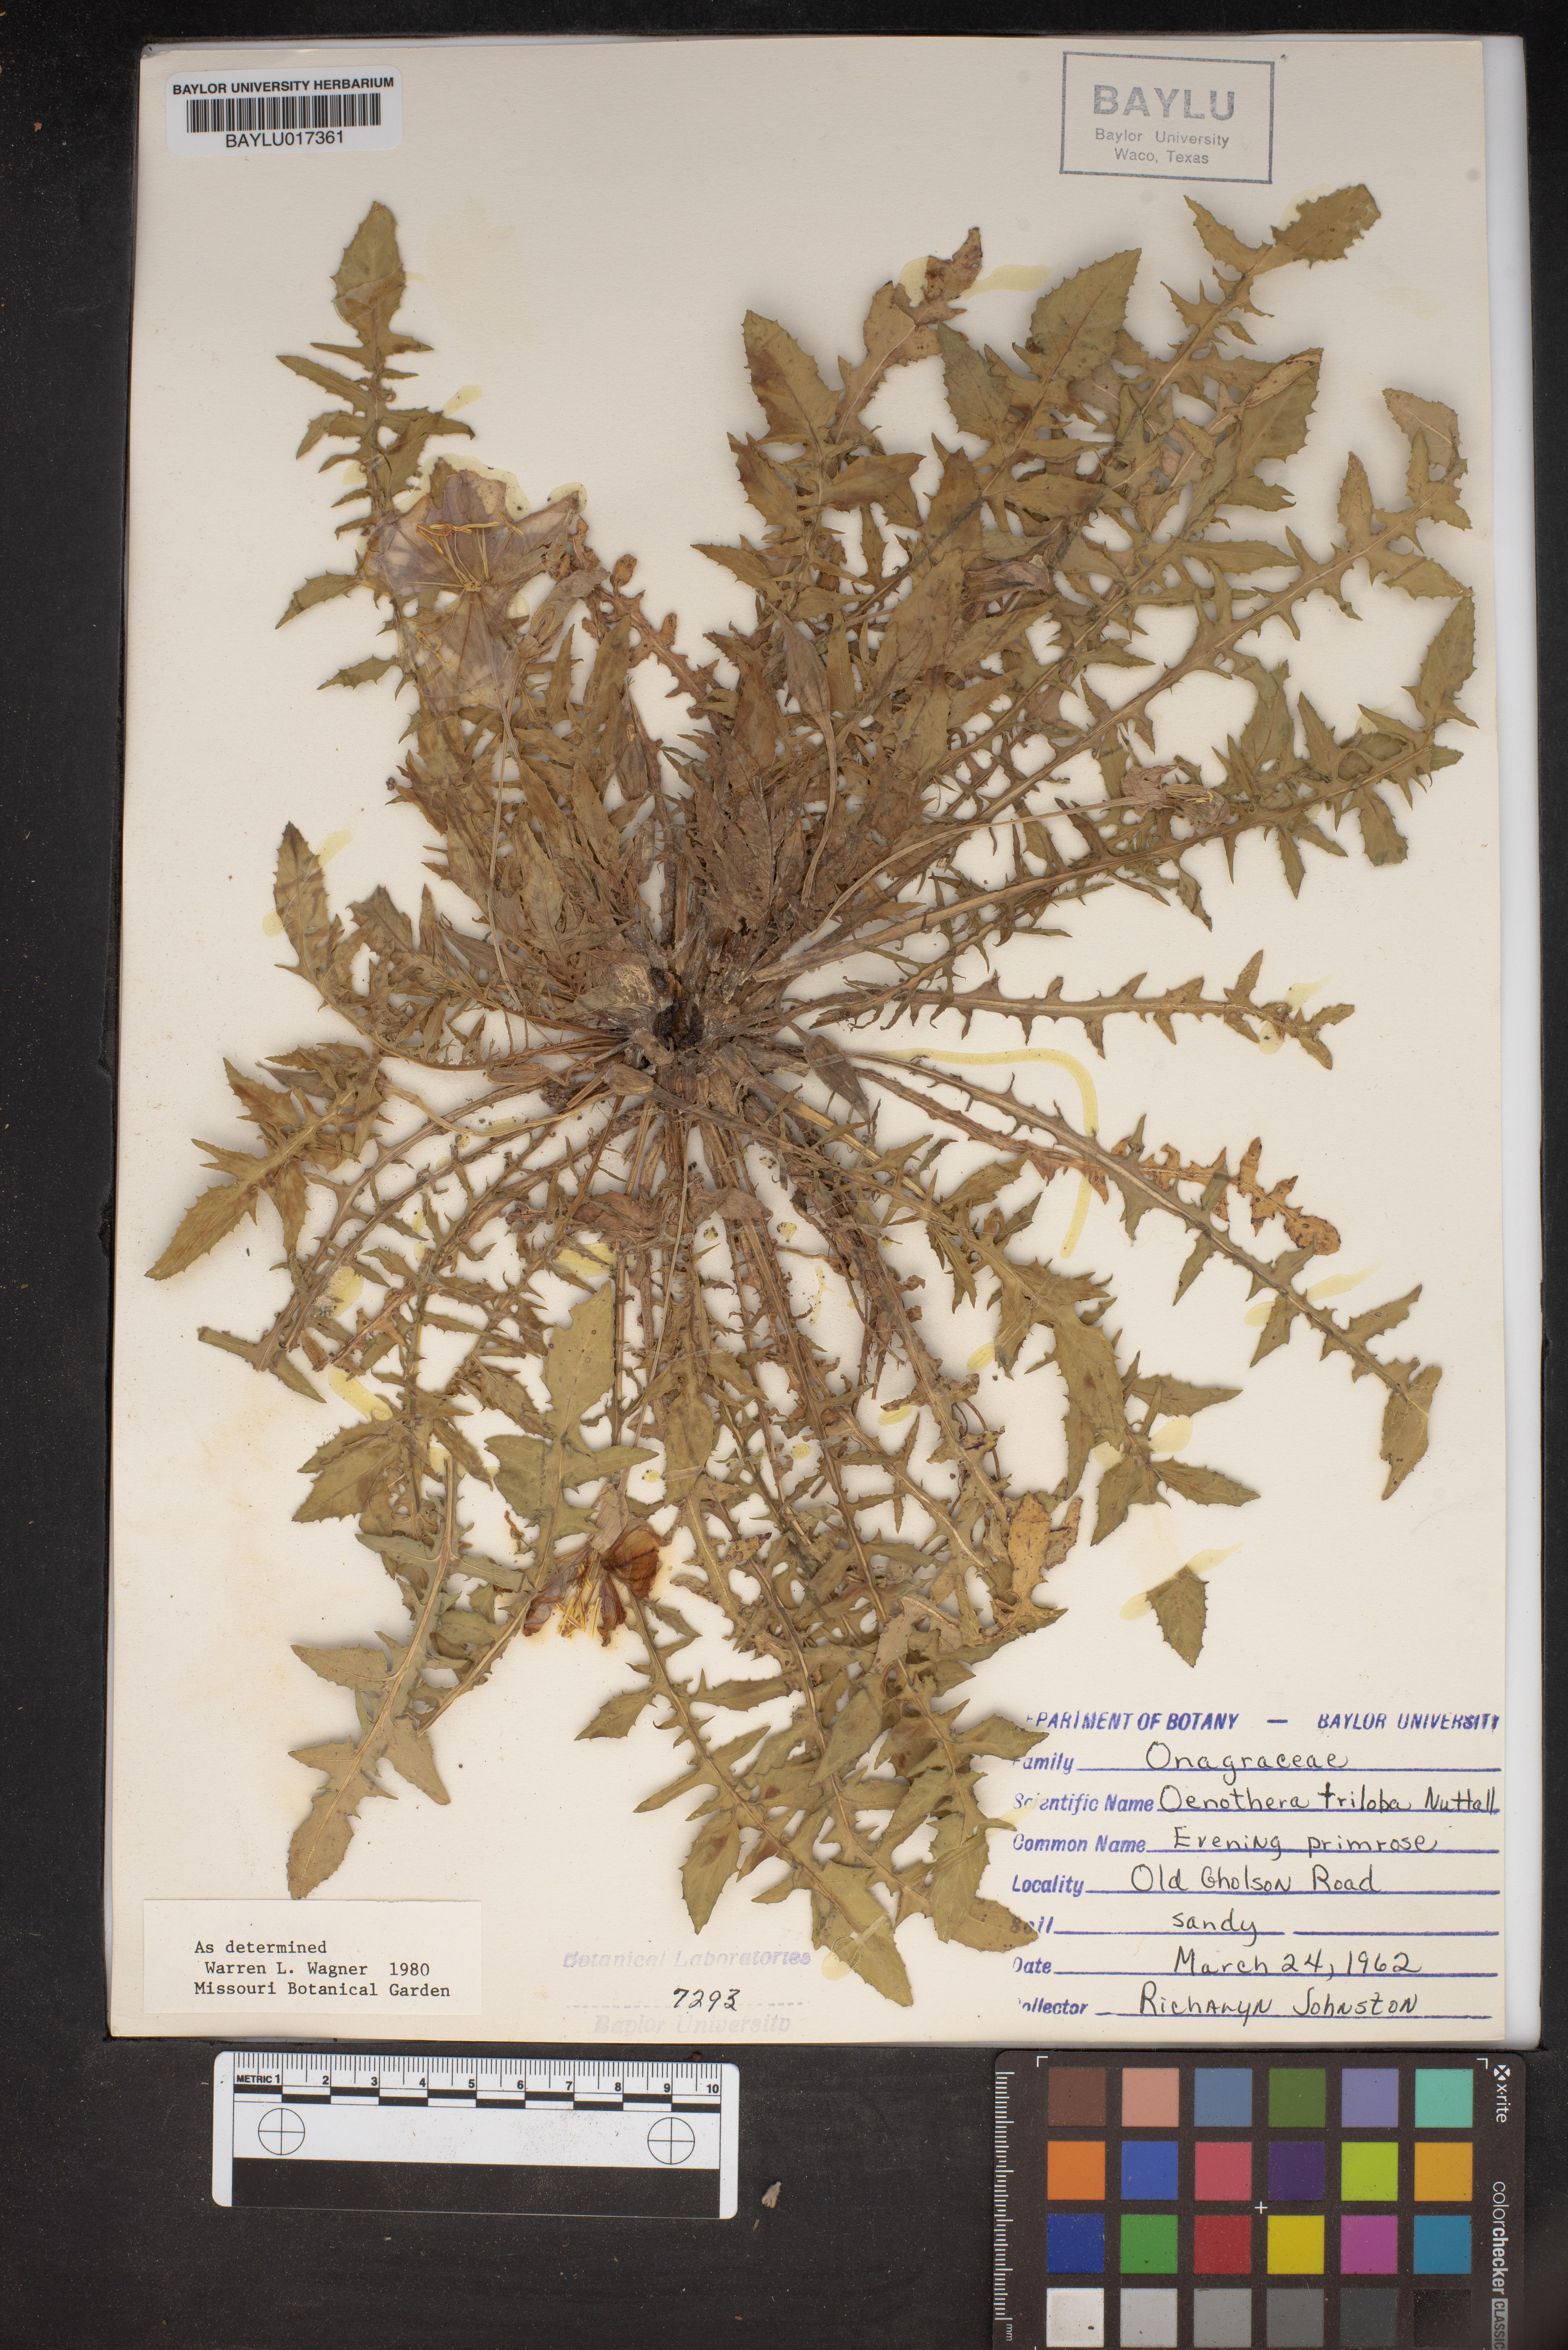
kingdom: Plantae
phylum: Tracheophyta
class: Magnoliopsida
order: Myrtales
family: Onagraceae
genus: Oenothera
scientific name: Oenothera triloba
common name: Sessile evening-primrose
